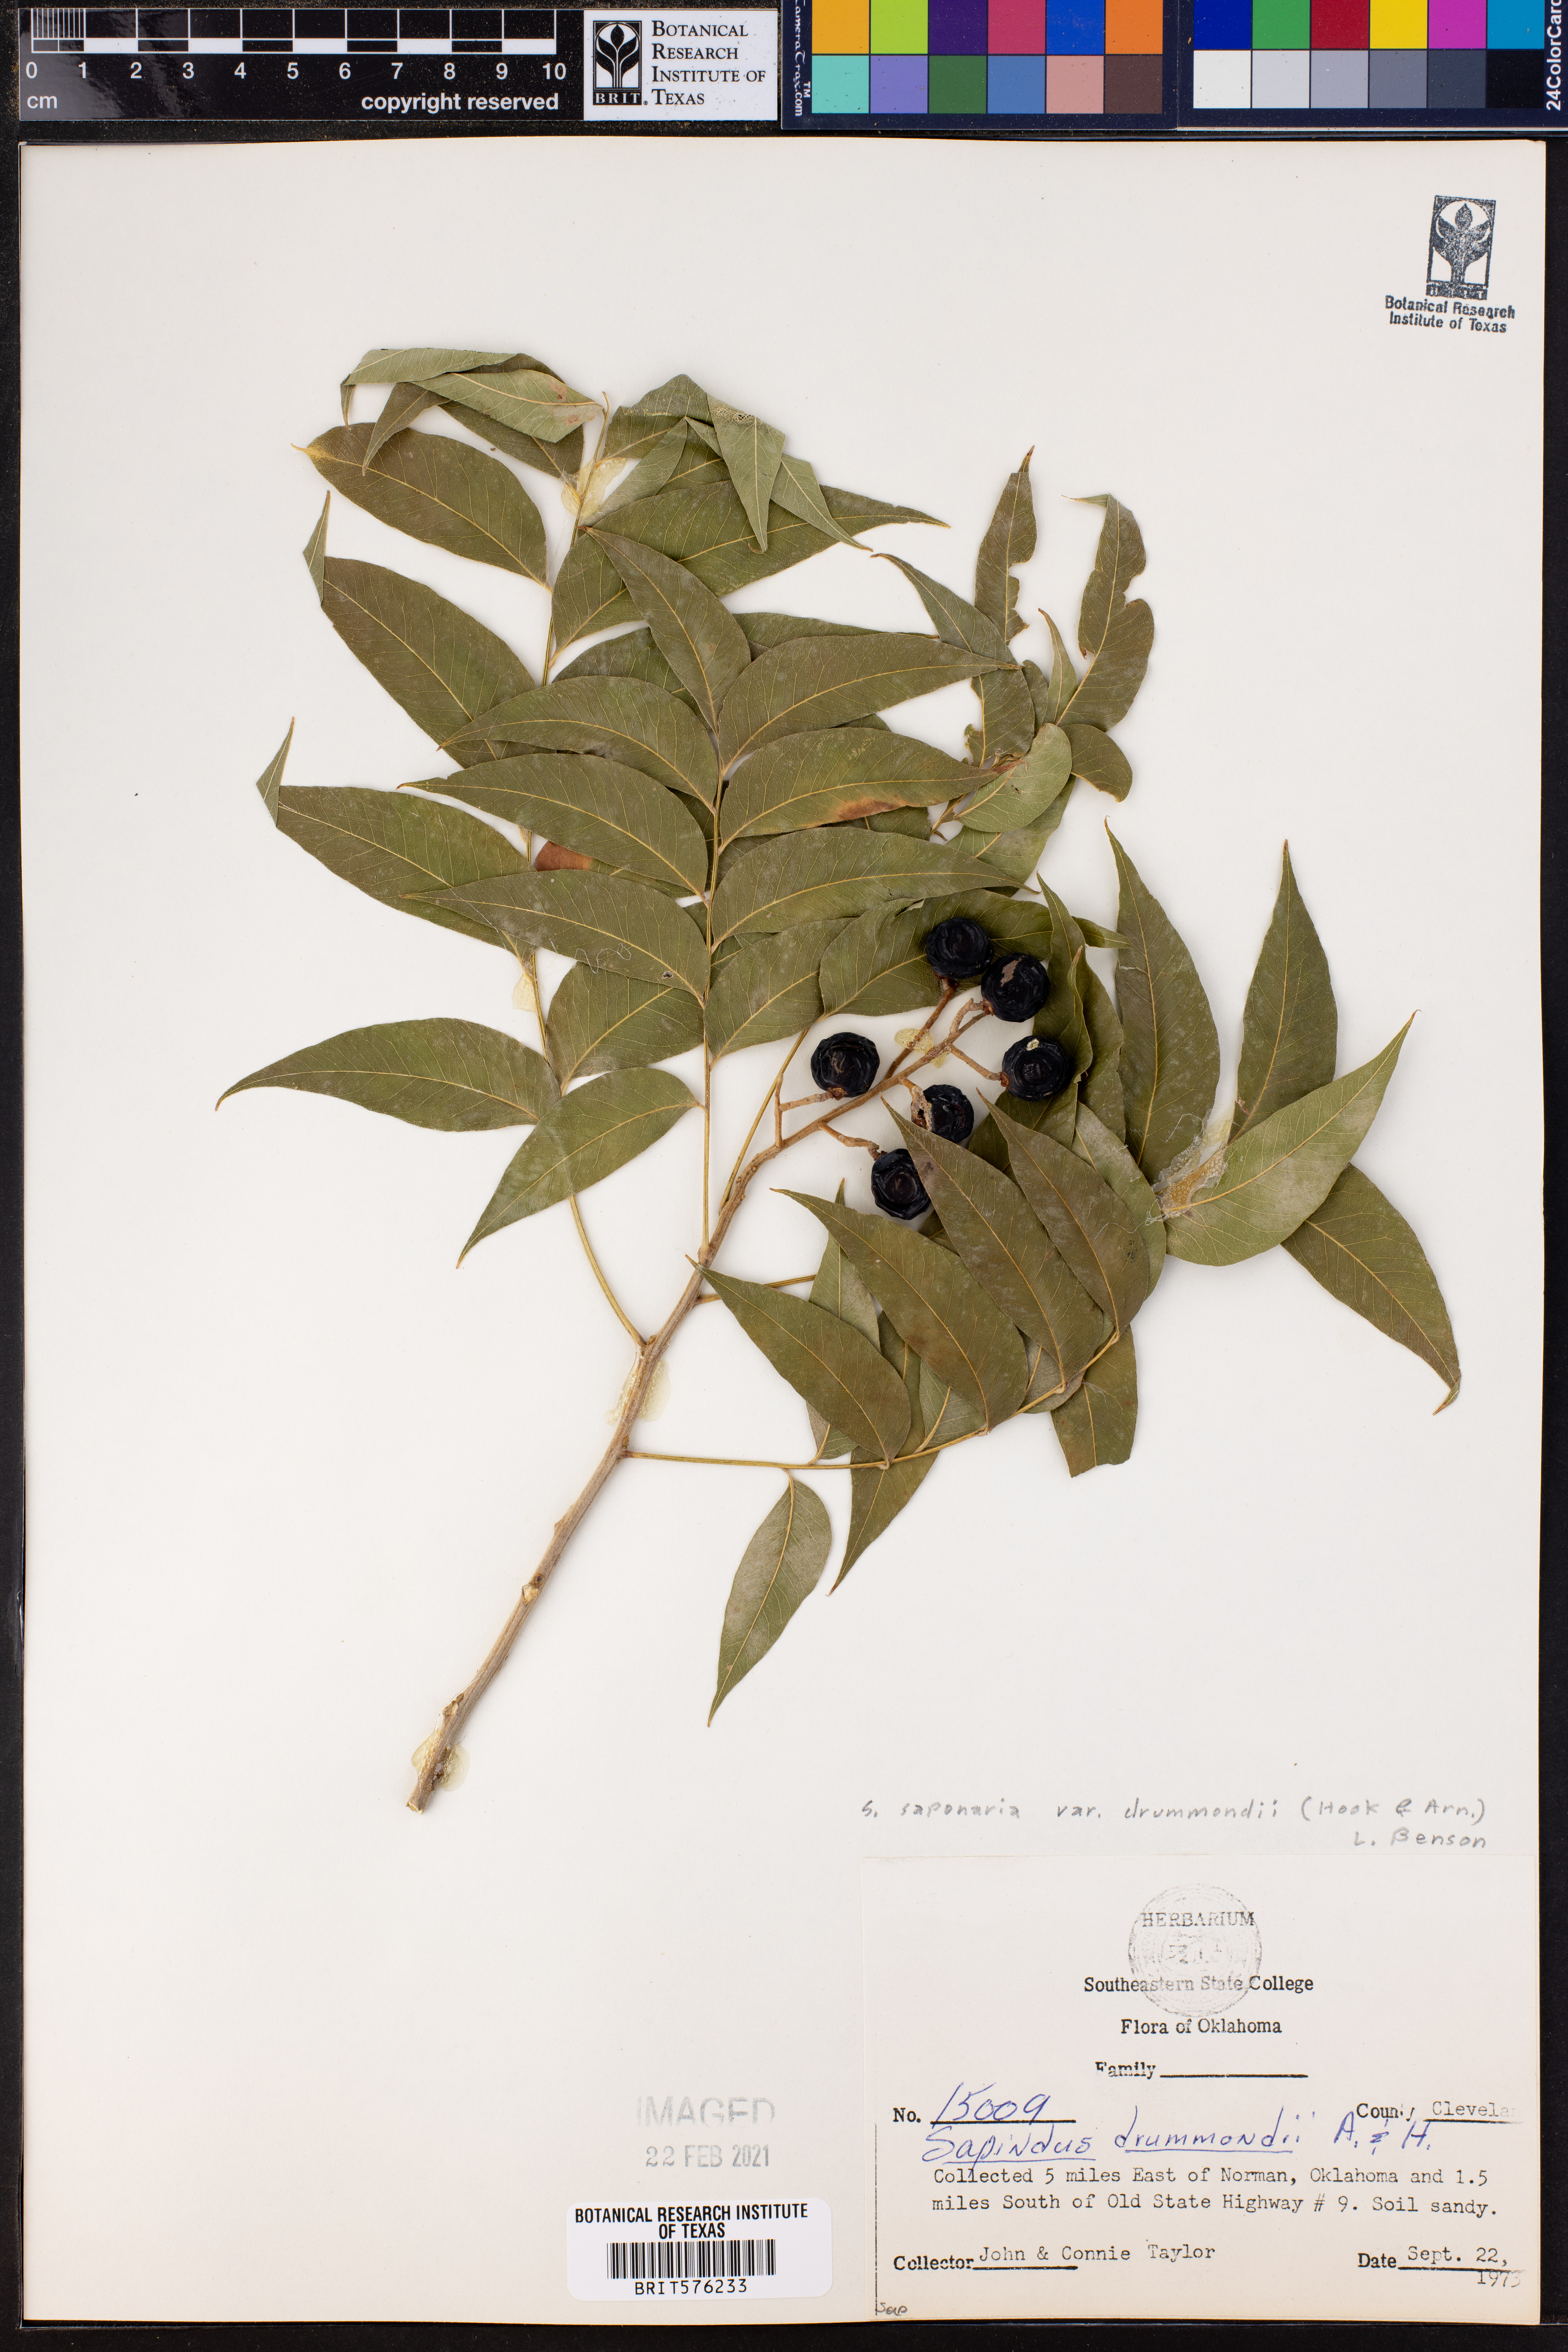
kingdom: Plantae
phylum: Tracheophyta
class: Magnoliopsida
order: Sapindales
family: Sapindaceae
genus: Sapindus
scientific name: Sapindus drummondii
